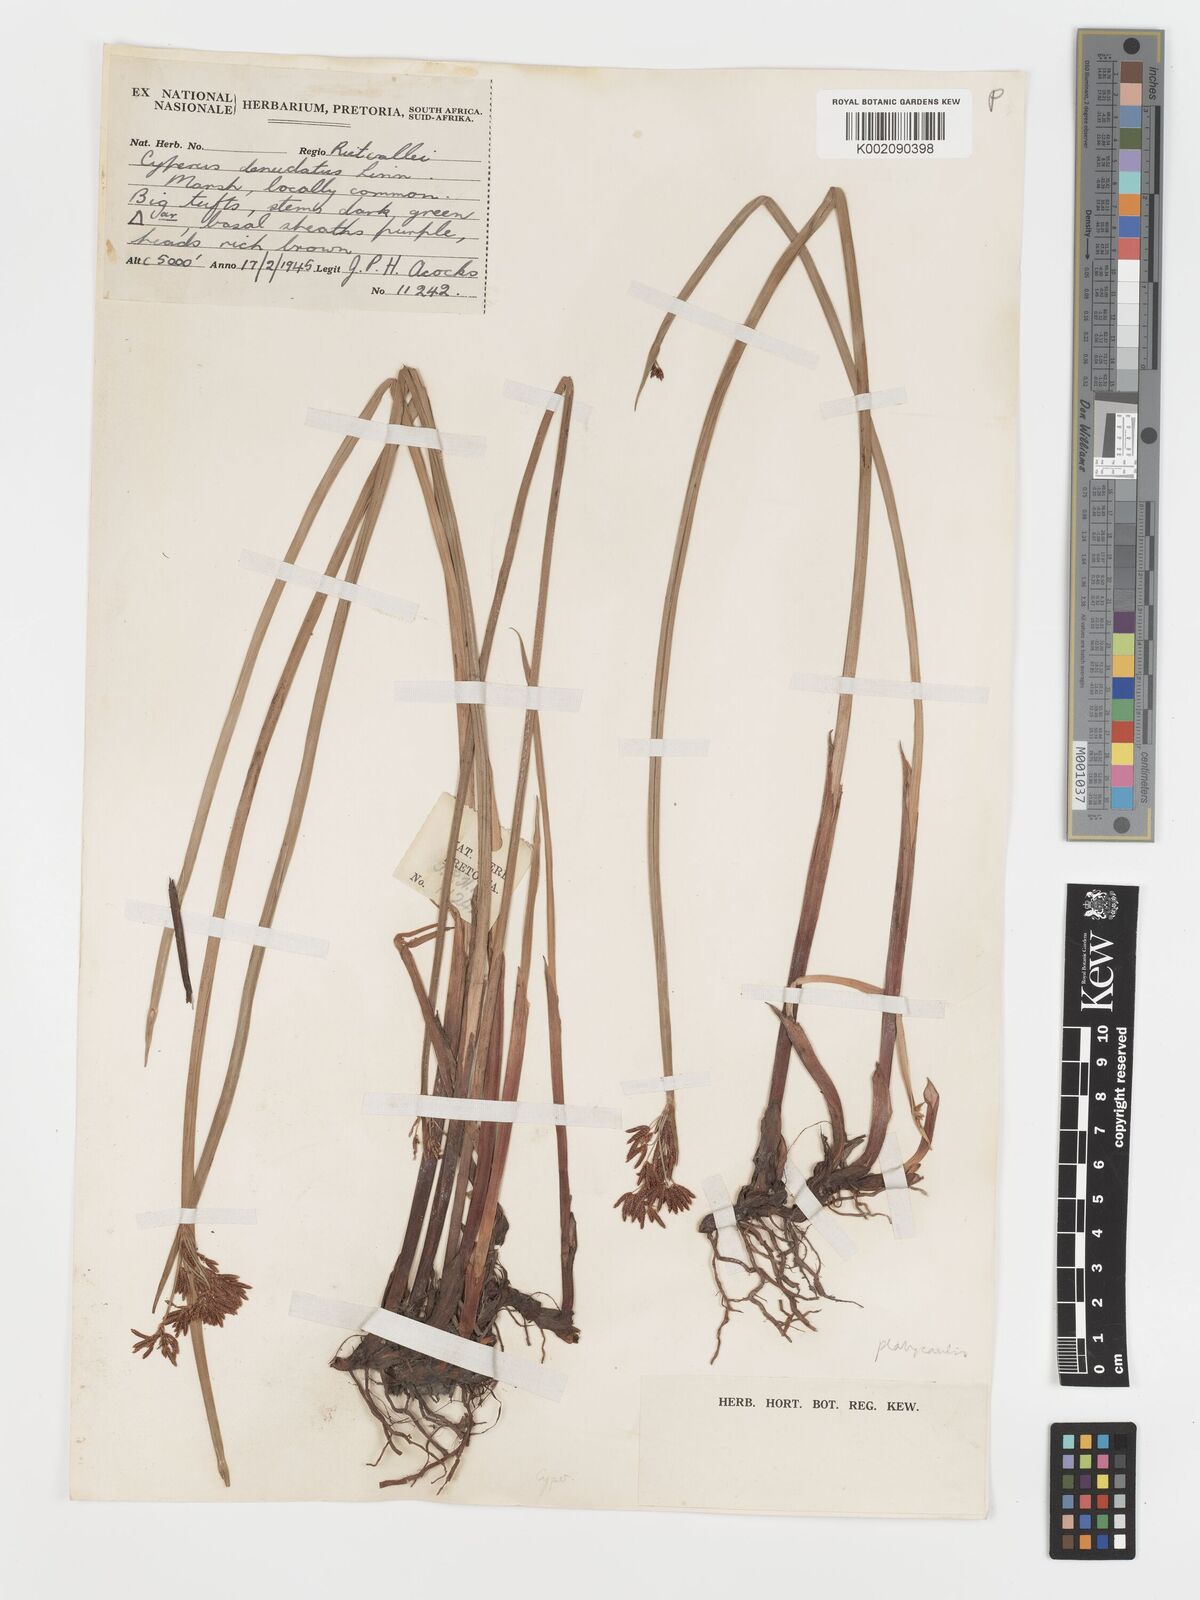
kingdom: Plantae
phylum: Tracheophyta
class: Liliopsida
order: Poales
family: Cyperaceae
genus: Cyperus
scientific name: Cyperus platycaulis
